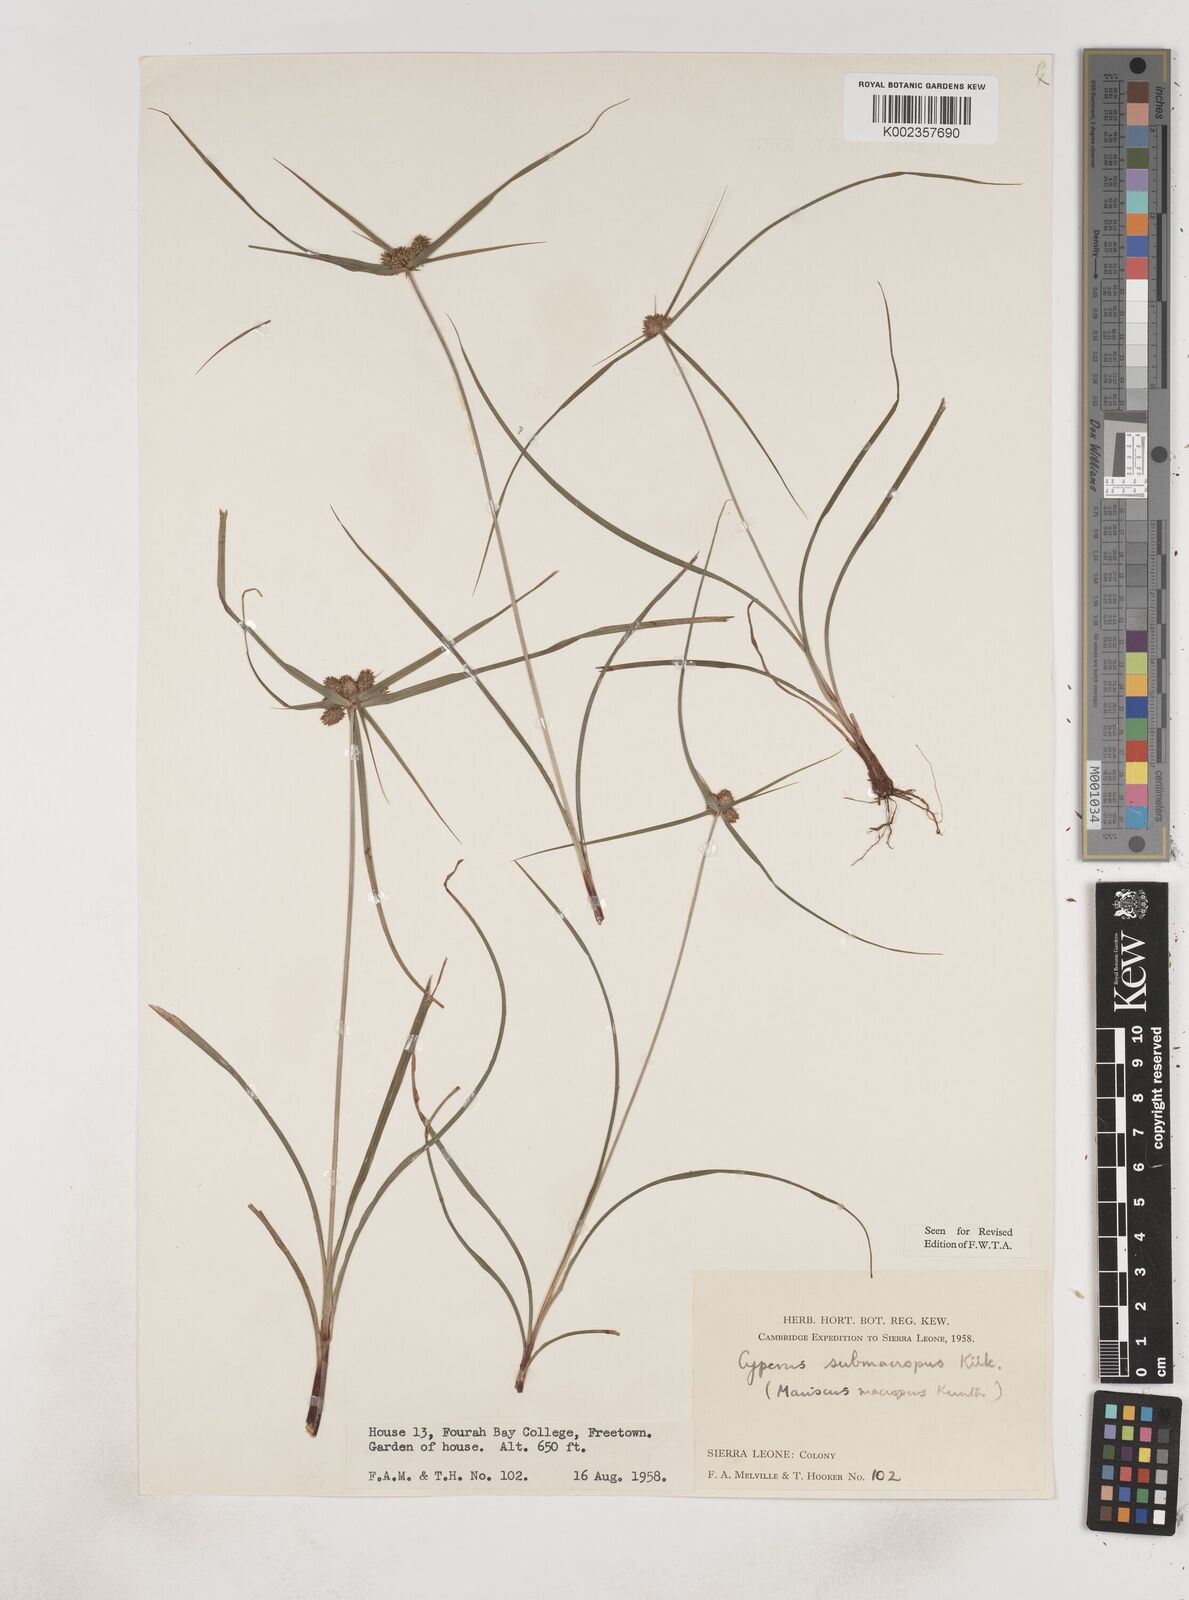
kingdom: Plantae
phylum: Tracheophyta
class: Liliopsida
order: Poales
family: Cyperaceae
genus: Cyperus
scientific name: Cyperus sublimis
